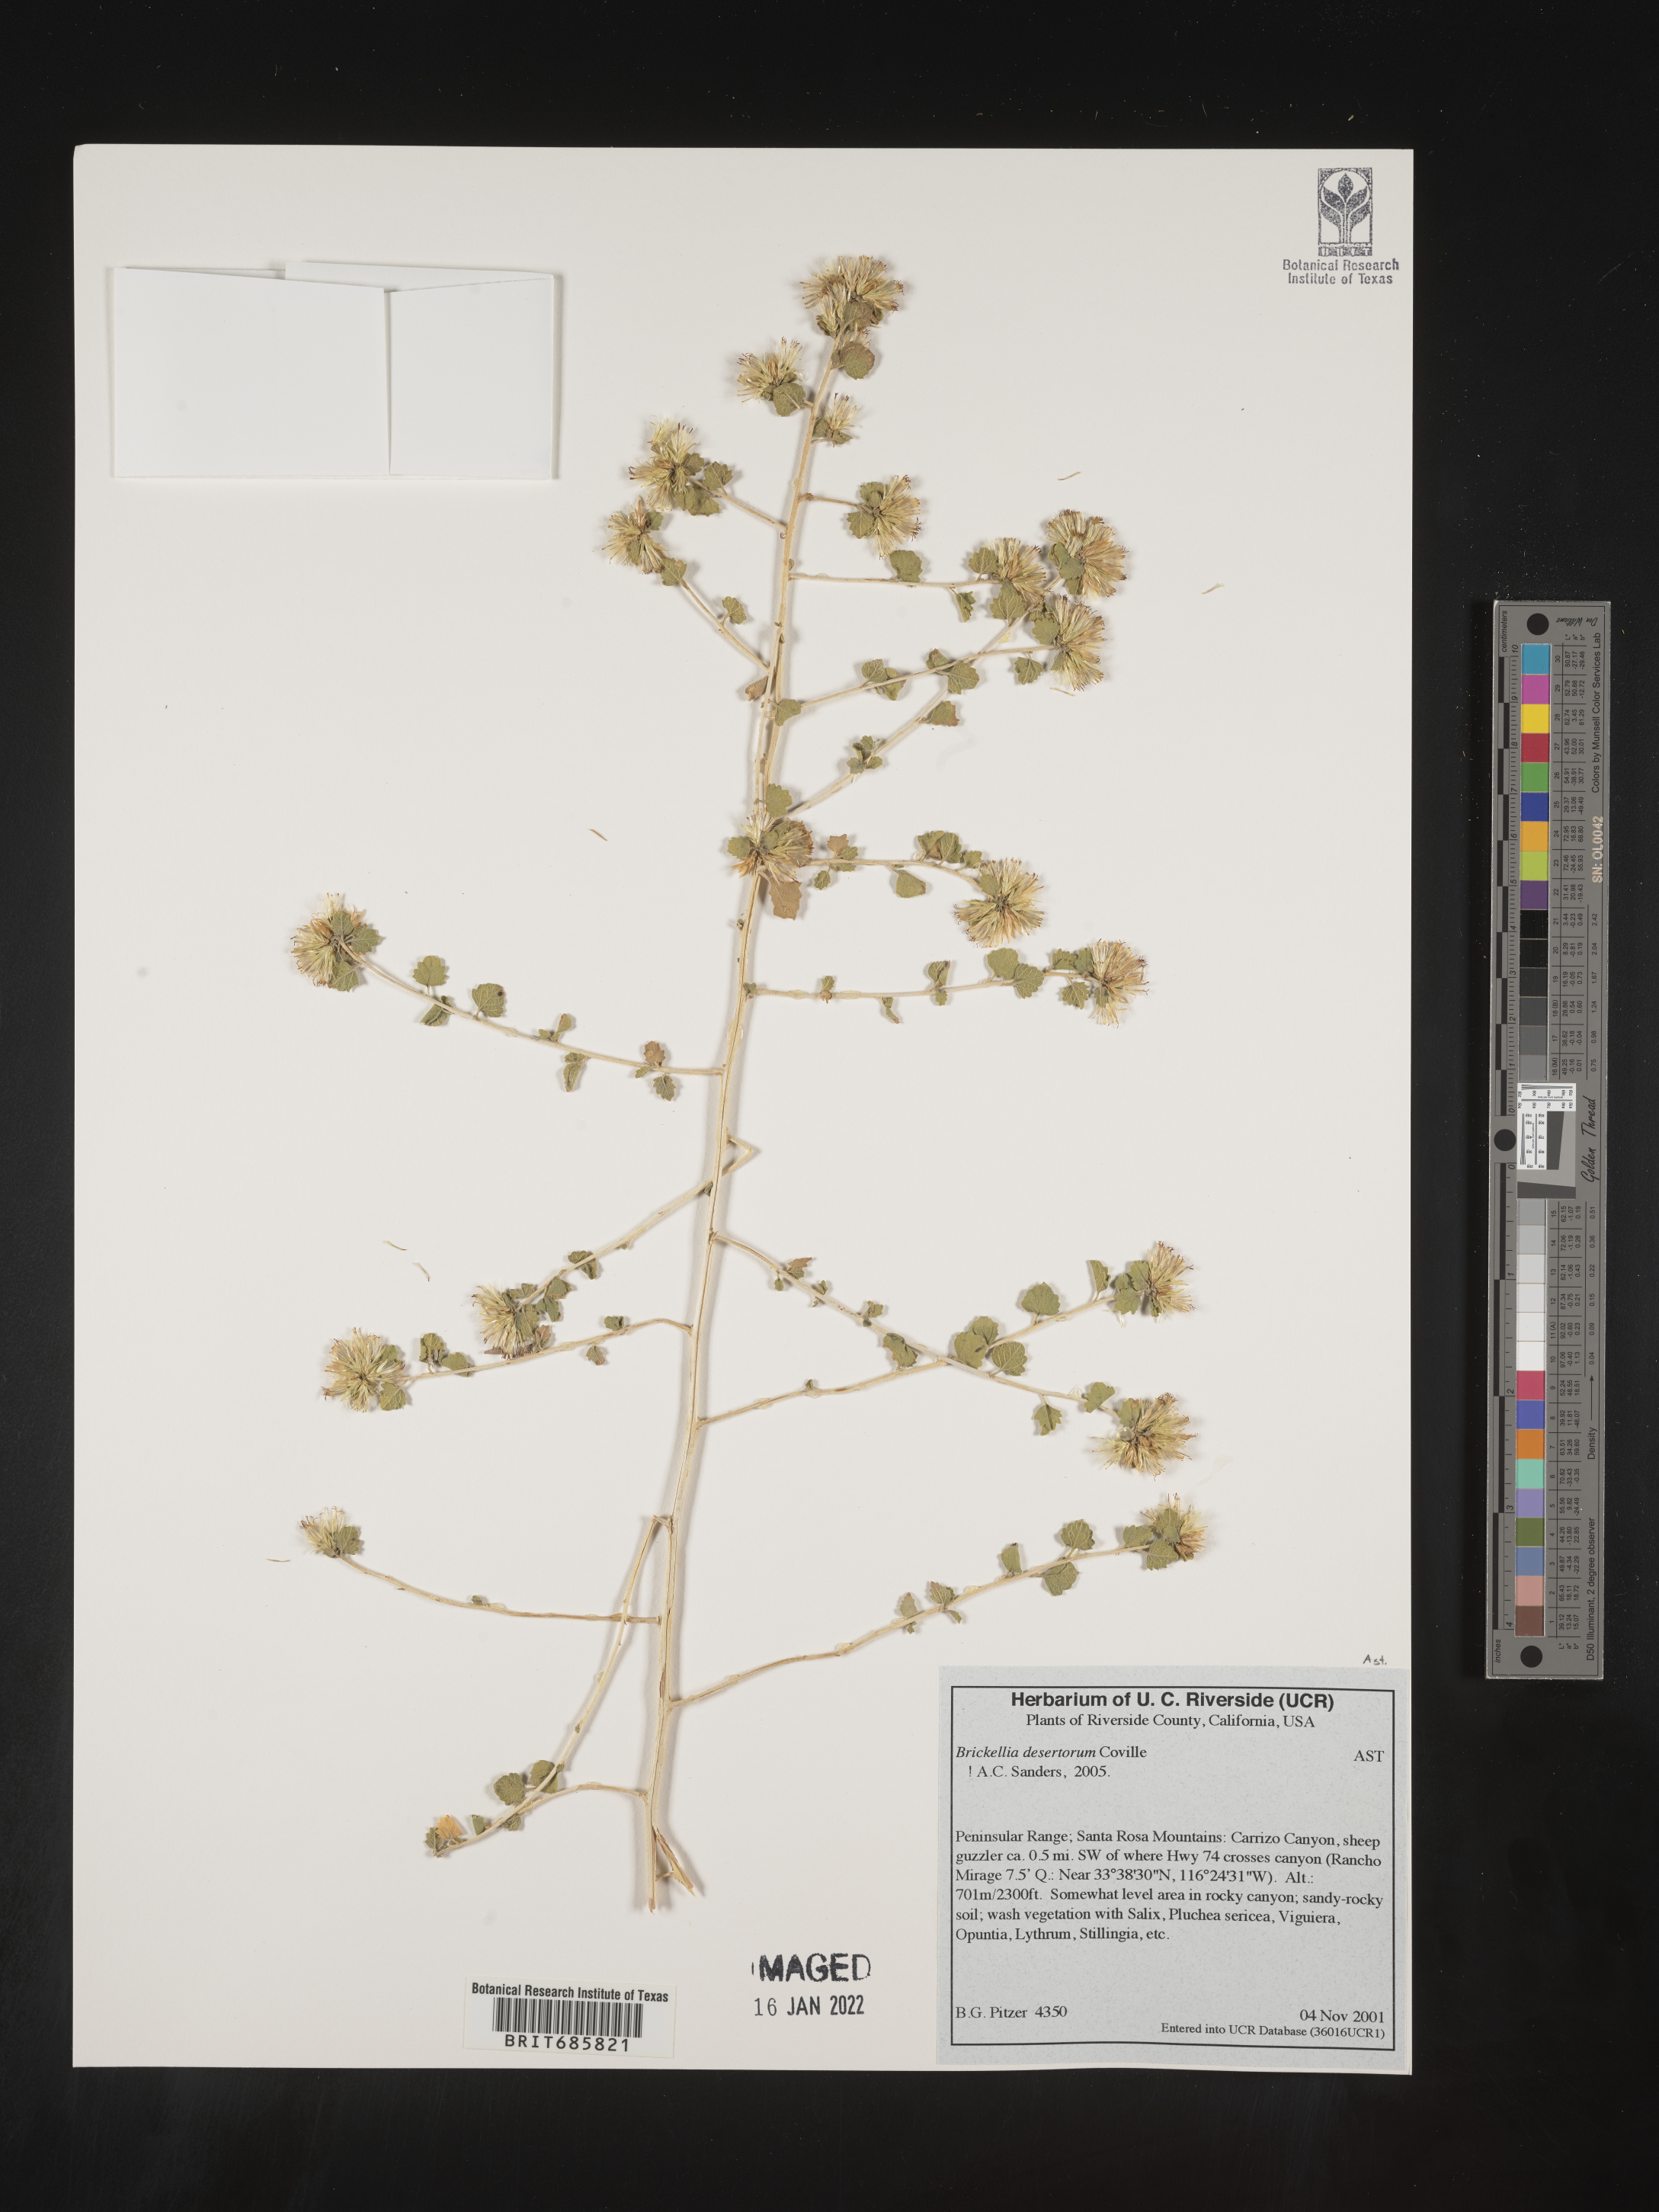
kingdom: Plantae
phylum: Tracheophyta
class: Magnoliopsida
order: Asterales
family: Asteraceae
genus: Brickellia
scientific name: Brickellia desertorum
